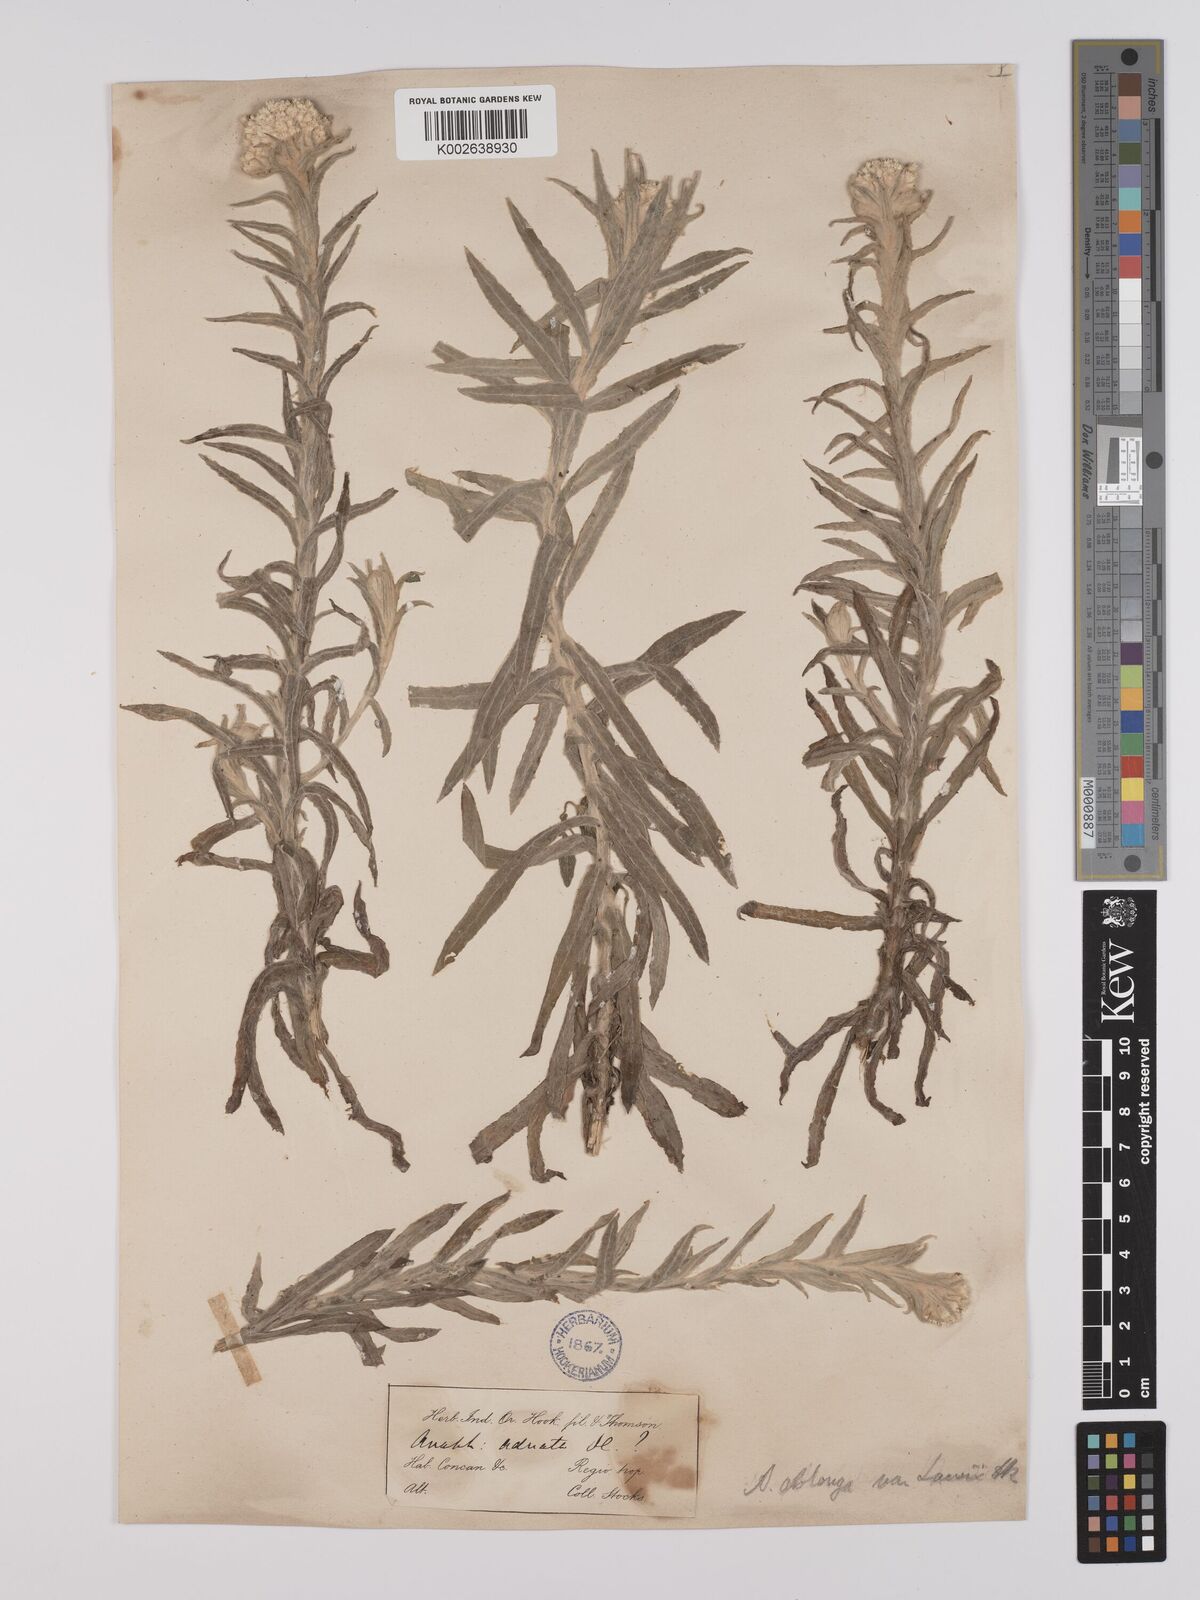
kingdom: Plantae
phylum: Tracheophyta
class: Magnoliopsida
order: Asterales
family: Asteraceae
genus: Anaphalis
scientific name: Anaphalis lawii
